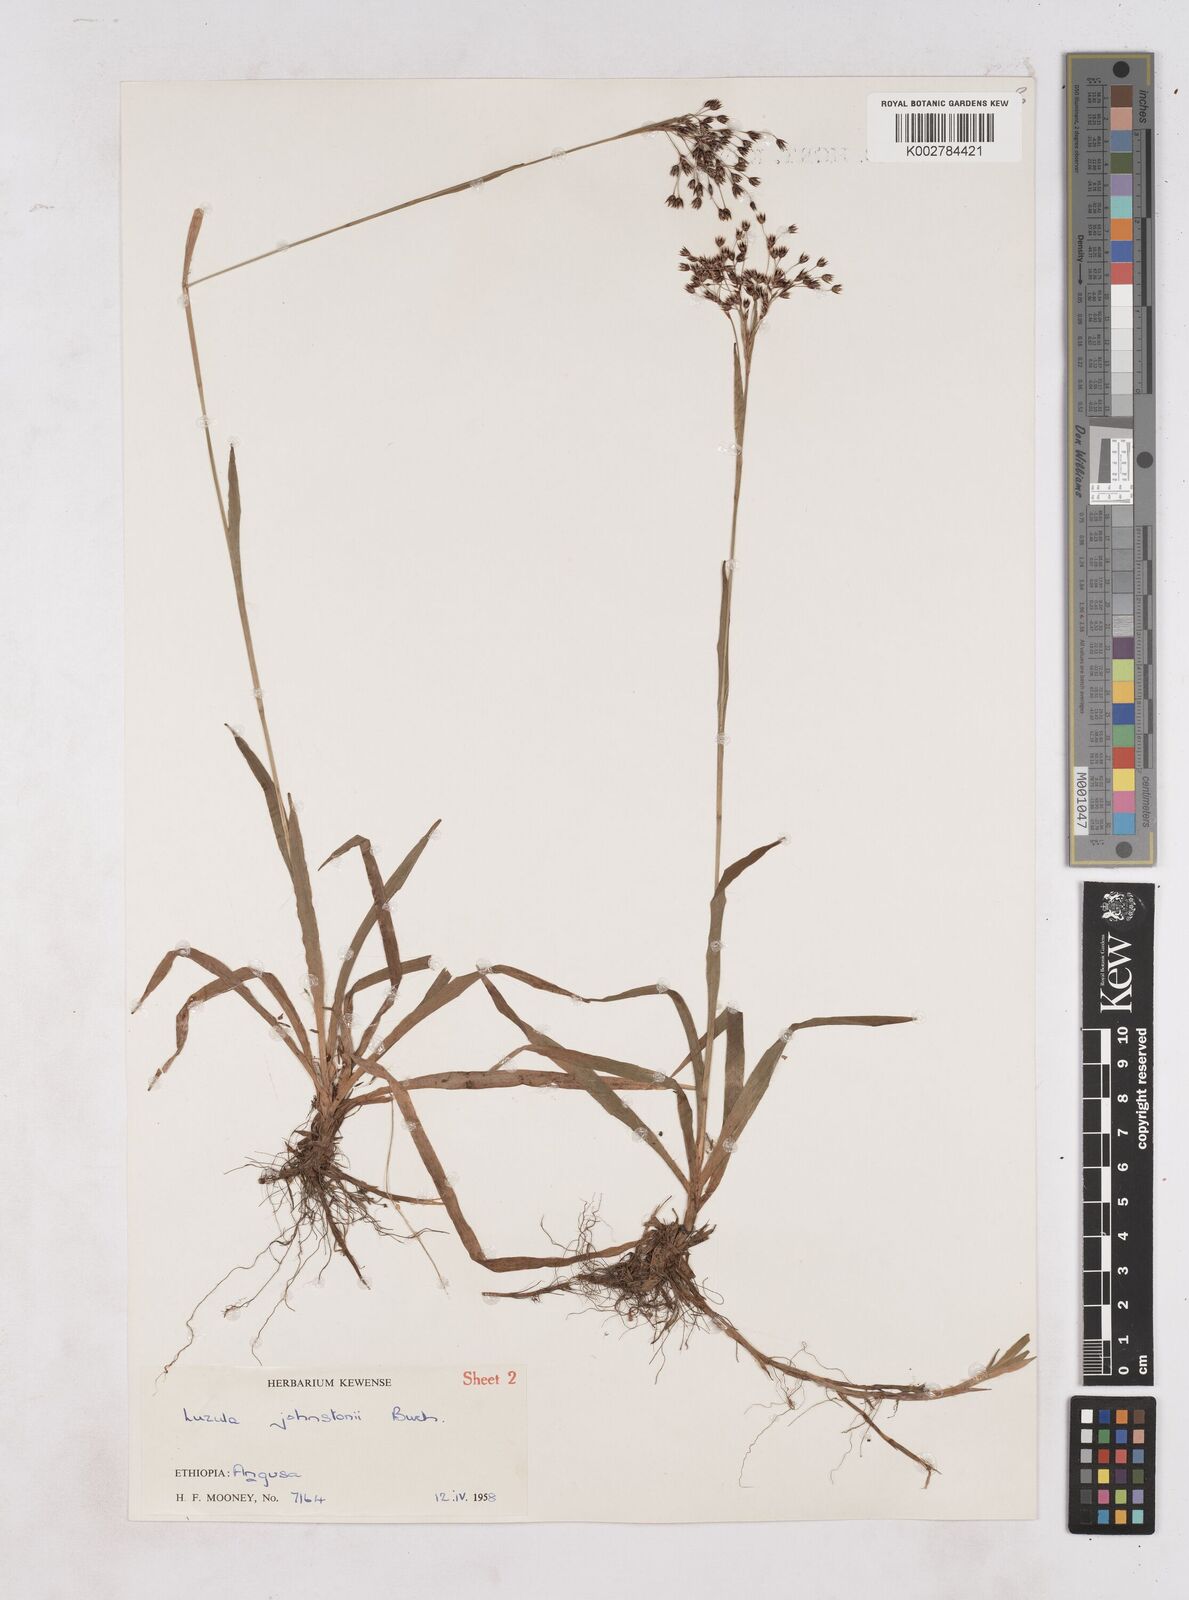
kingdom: Plantae
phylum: Tracheophyta
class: Liliopsida
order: Poales
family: Juncaceae
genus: Luzula
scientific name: Luzula johnstonii
